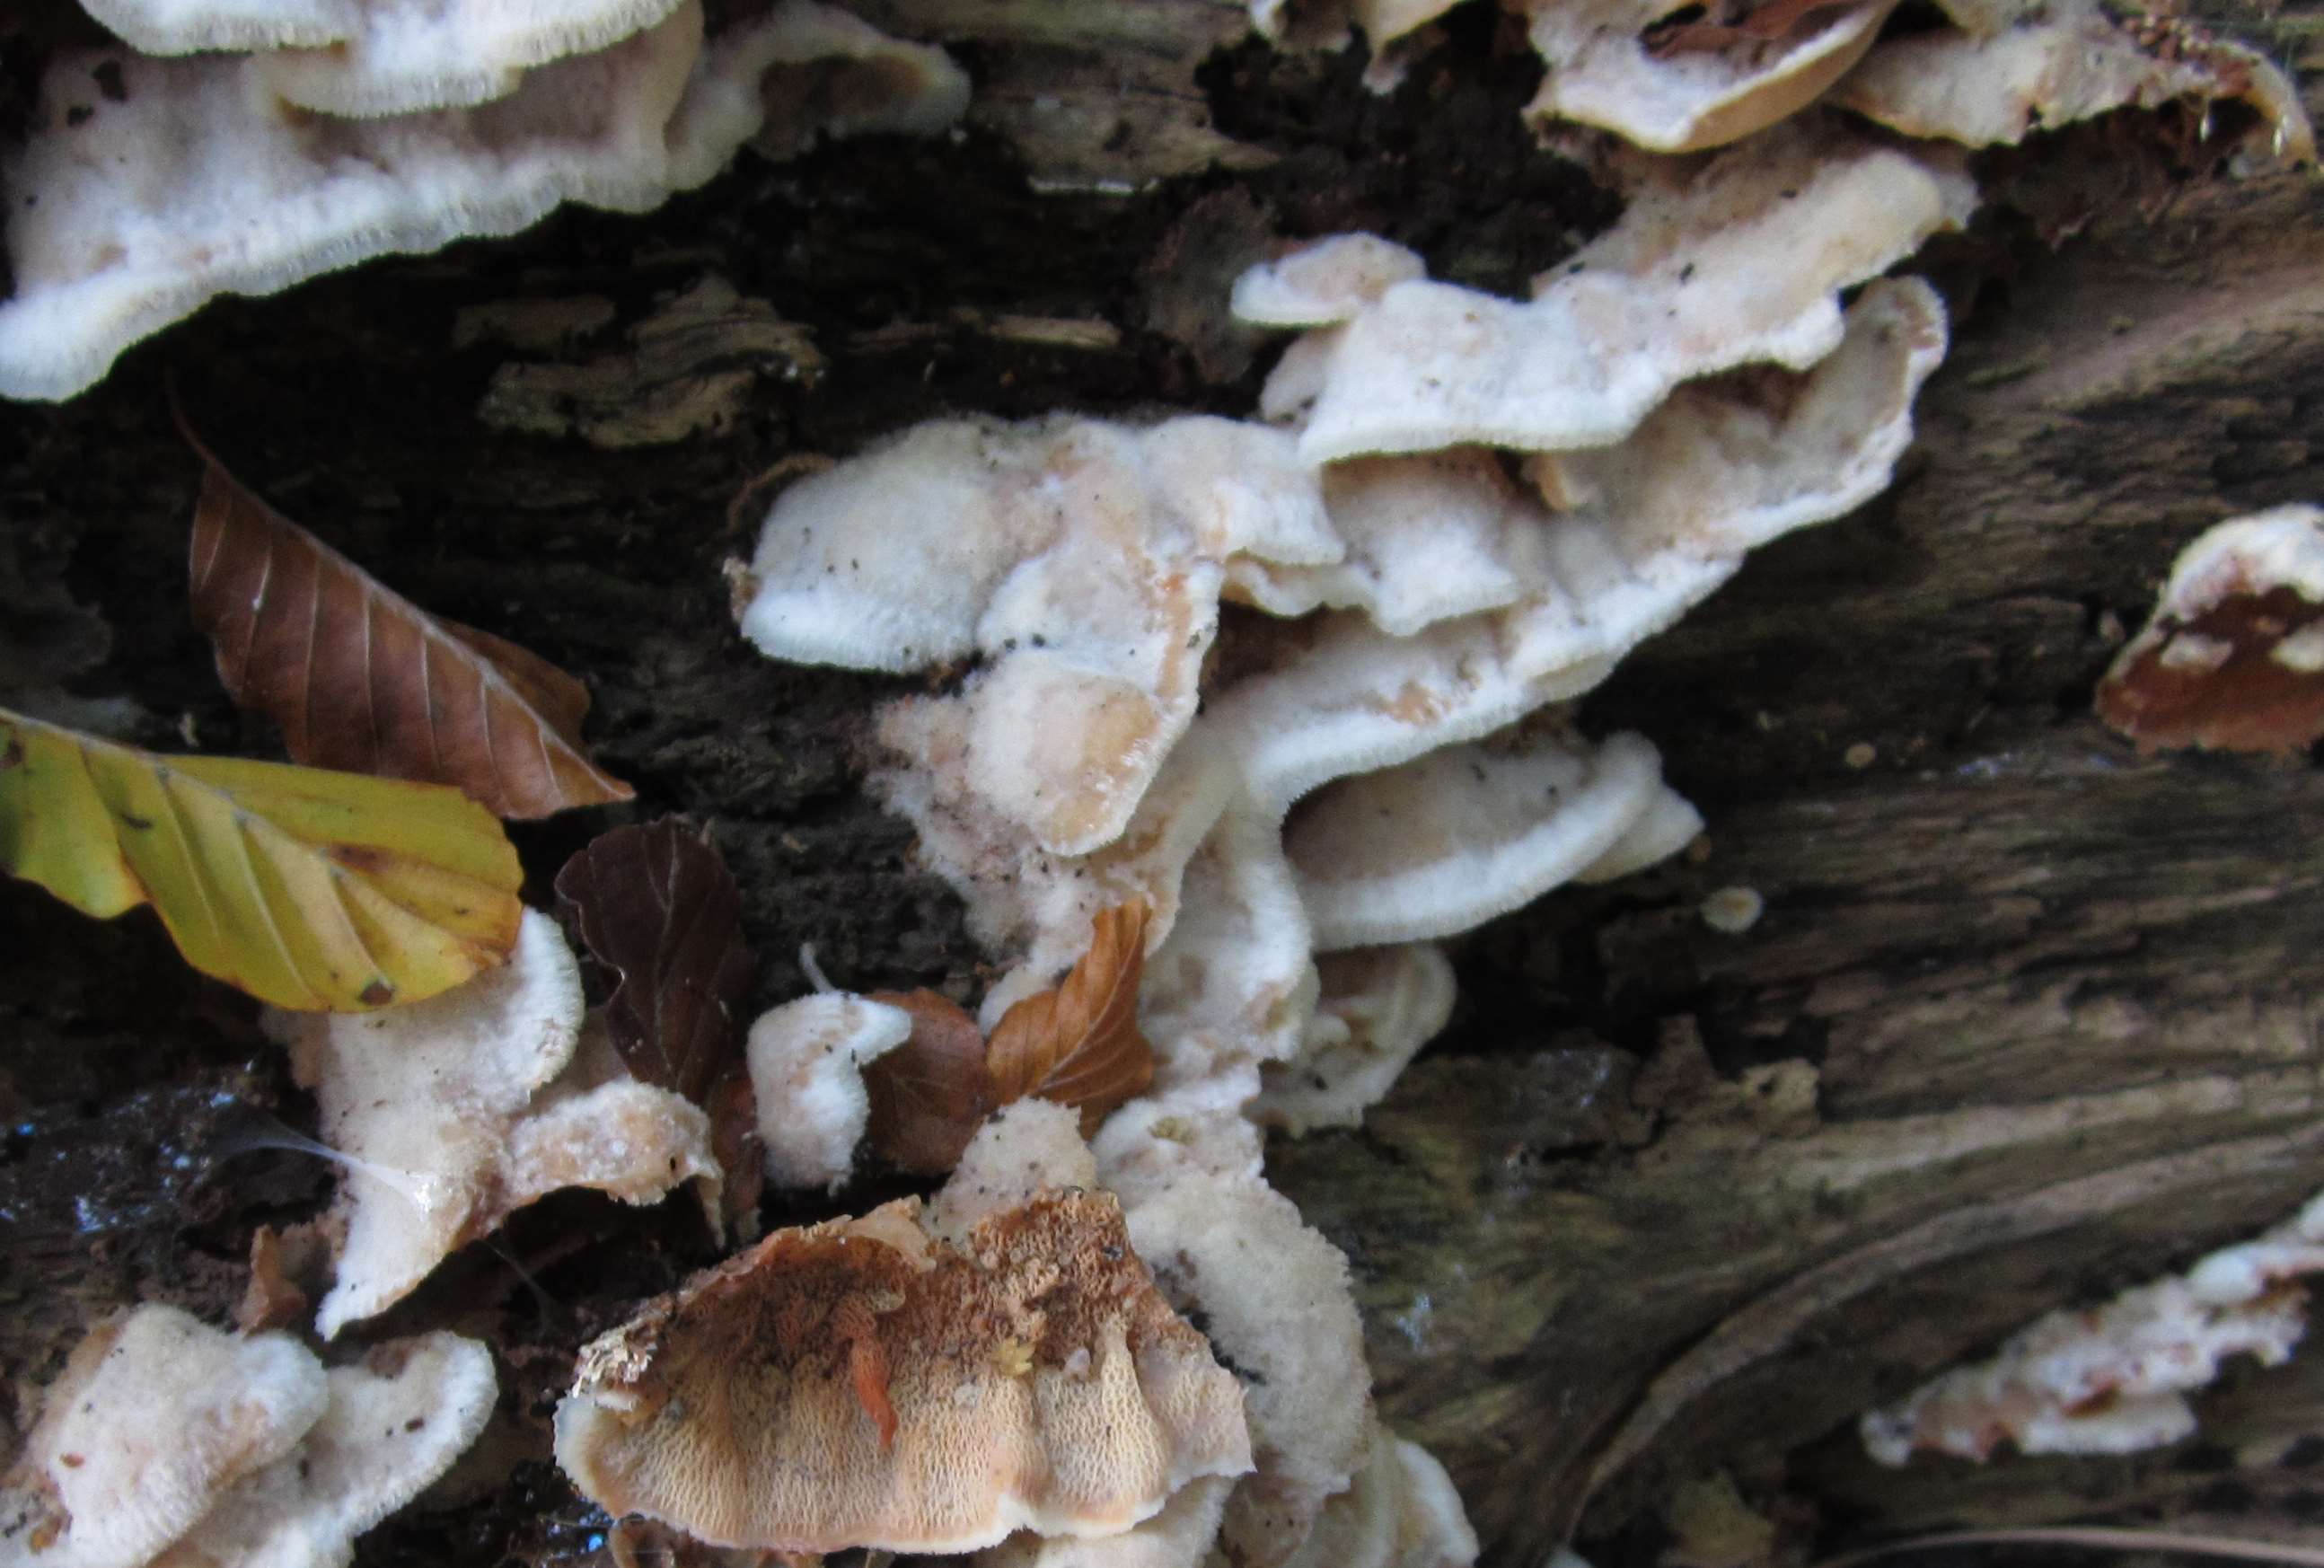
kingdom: Fungi
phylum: Basidiomycota
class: Agaricomycetes
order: Polyporales
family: Meruliaceae
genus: Phlebia
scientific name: Phlebia tremellosa
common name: bævrende åresvamp
